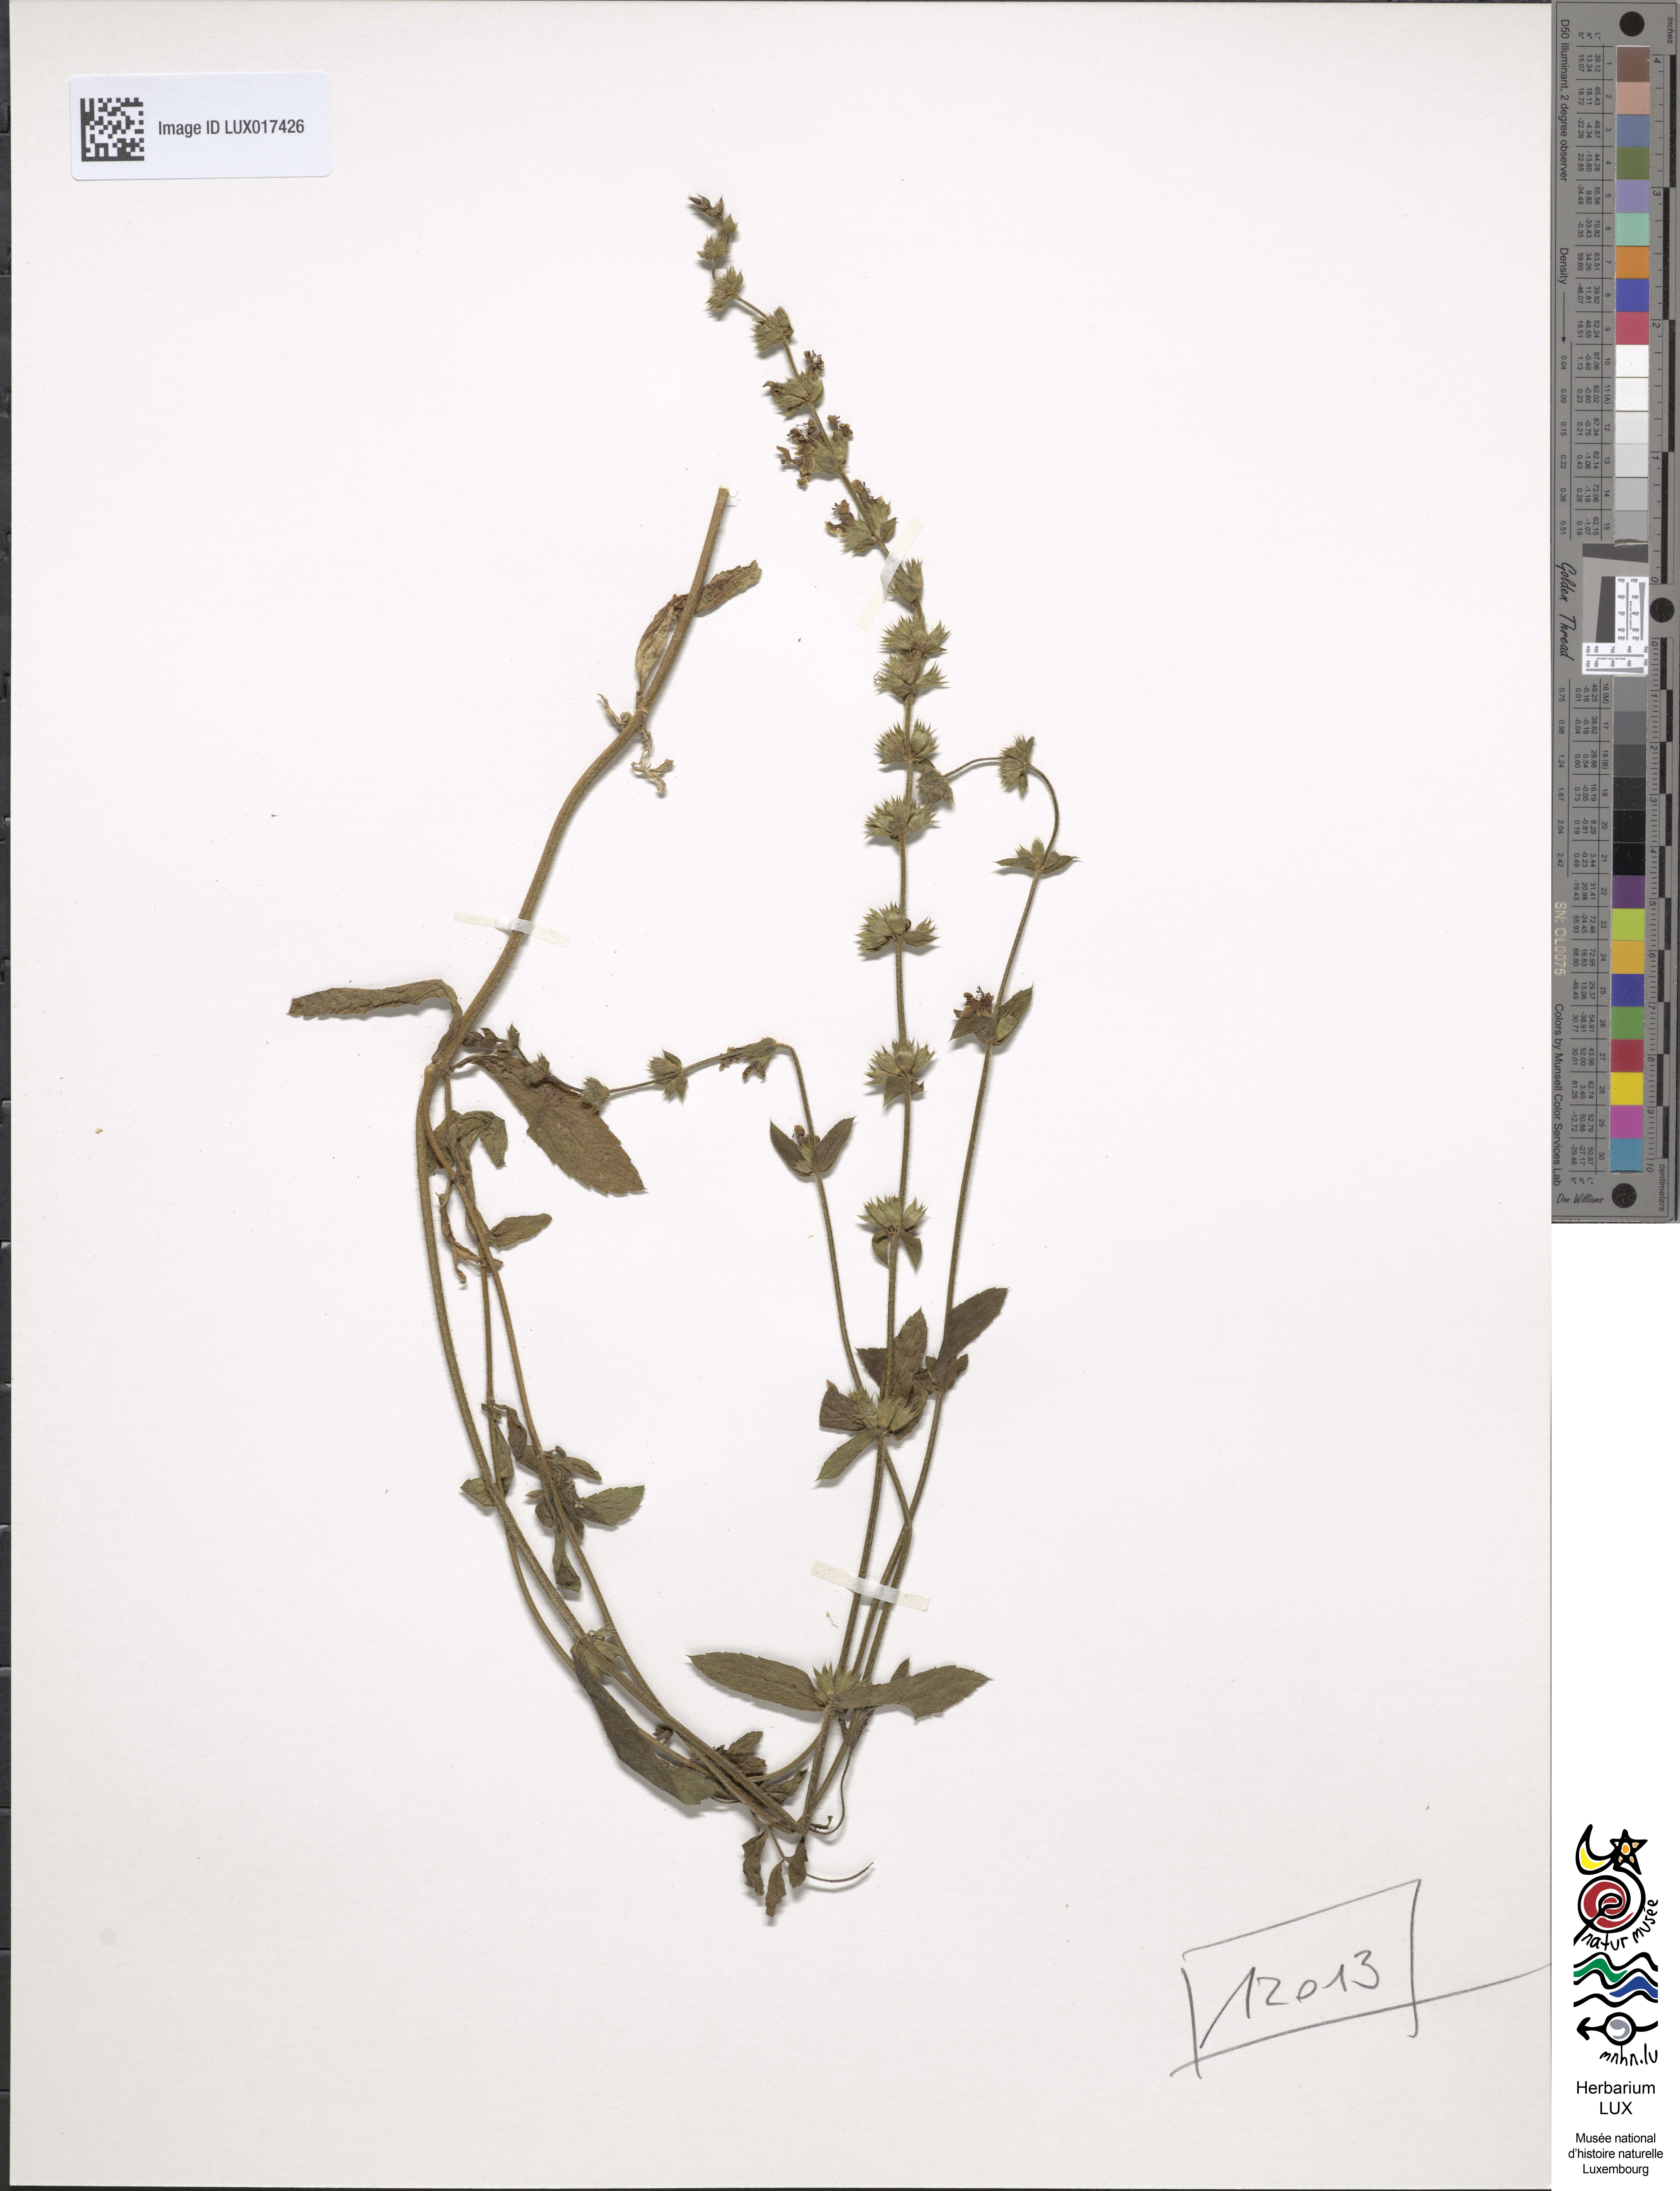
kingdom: Plantae
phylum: Tracheophyta
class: Magnoliopsida
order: Lamiales
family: Lamiaceae
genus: Stachys
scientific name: Stachys recta
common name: Perennial yellow-woundwort
